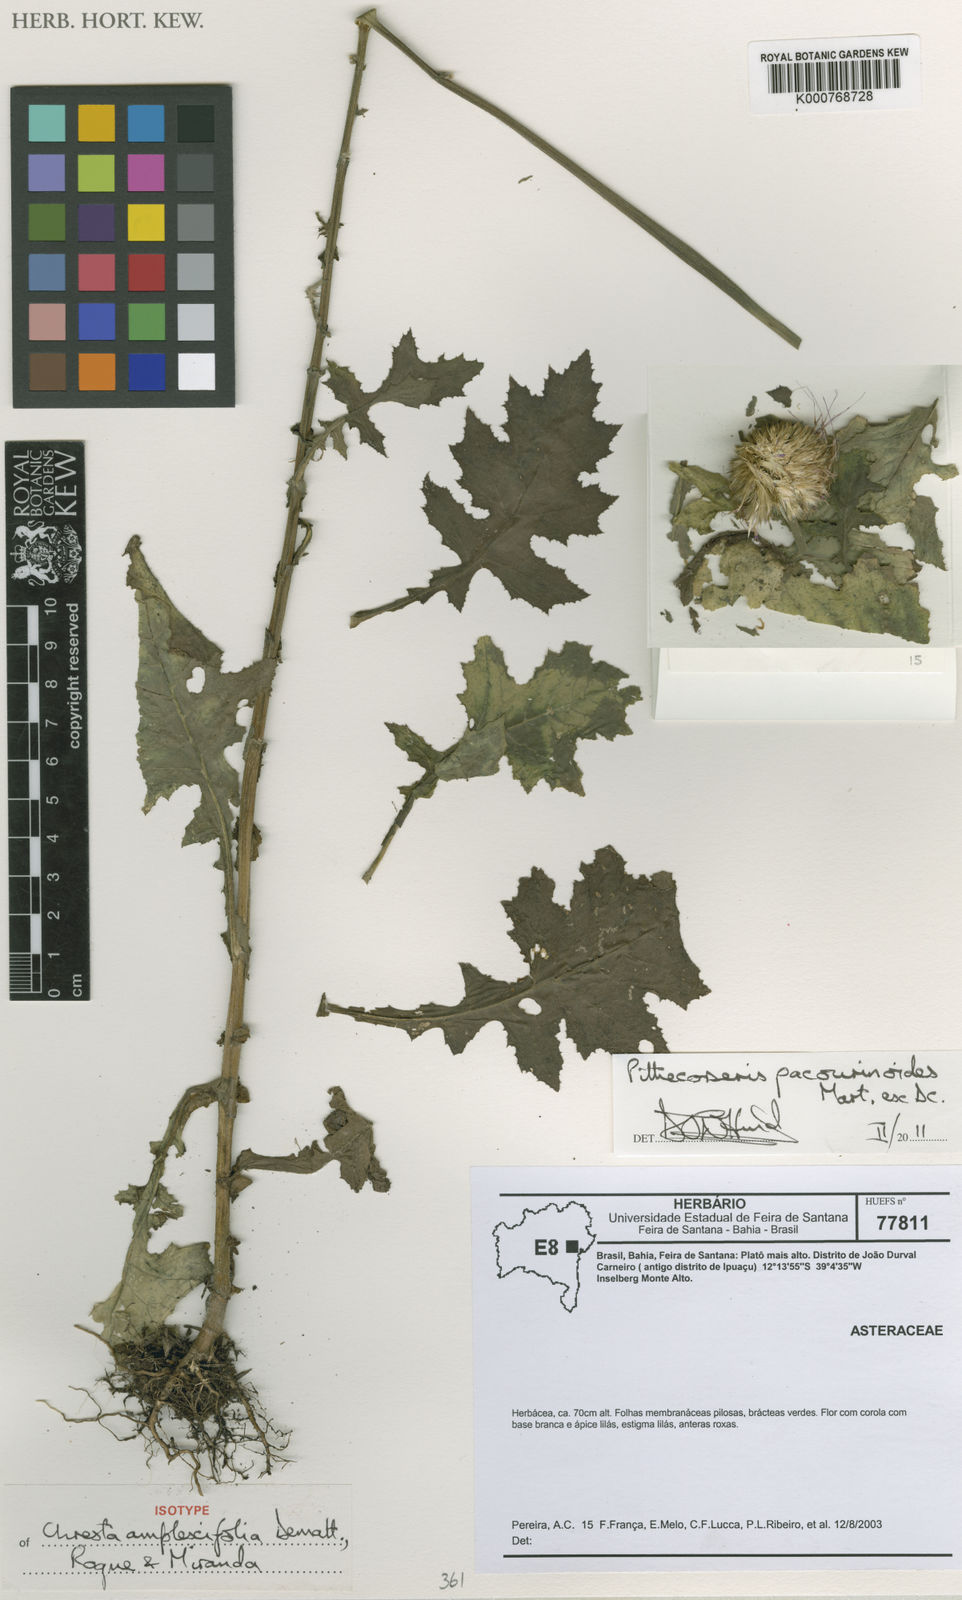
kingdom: Plantae
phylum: Tracheophyta
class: Magnoliopsida
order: Asterales
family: Asteraceae
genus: Chresta
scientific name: Chresta pacourinoides
